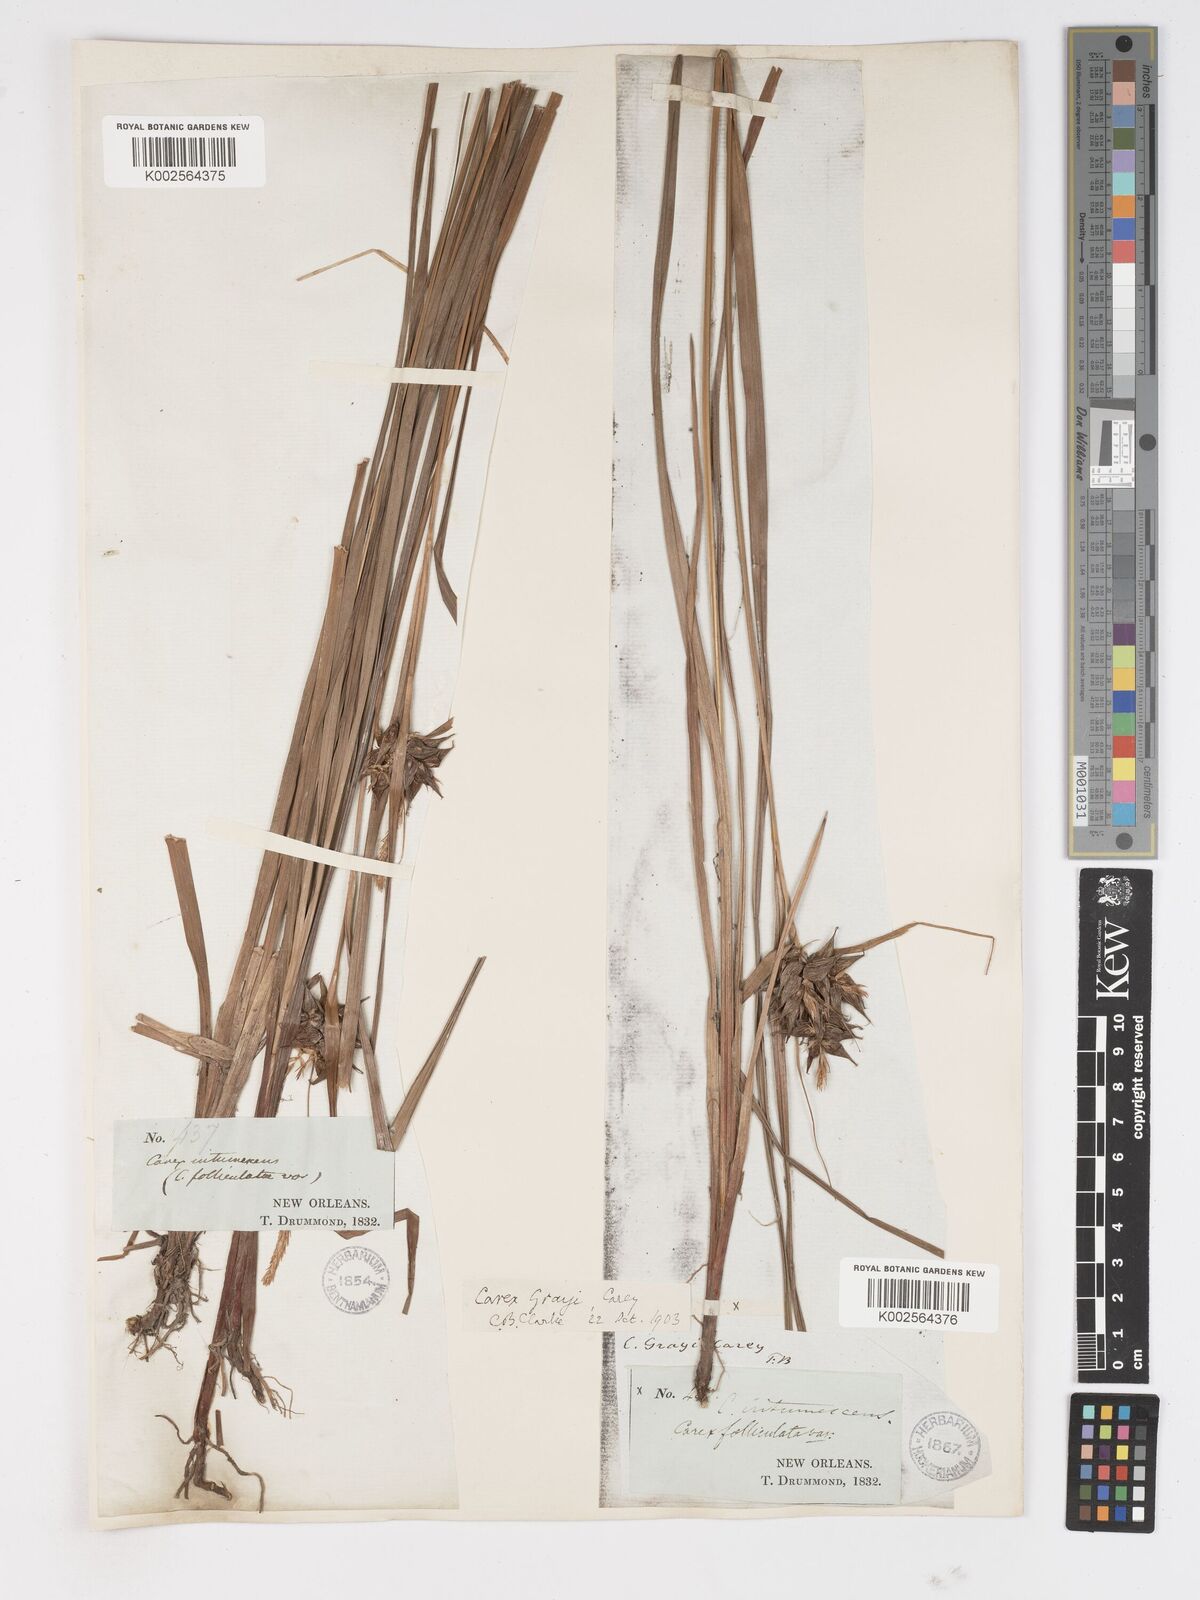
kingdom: Plantae
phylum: Tracheophyta
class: Liliopsida
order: Poales
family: Cyperaceae
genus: Carex
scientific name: Carex grayi
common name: Asa gray's sedge
